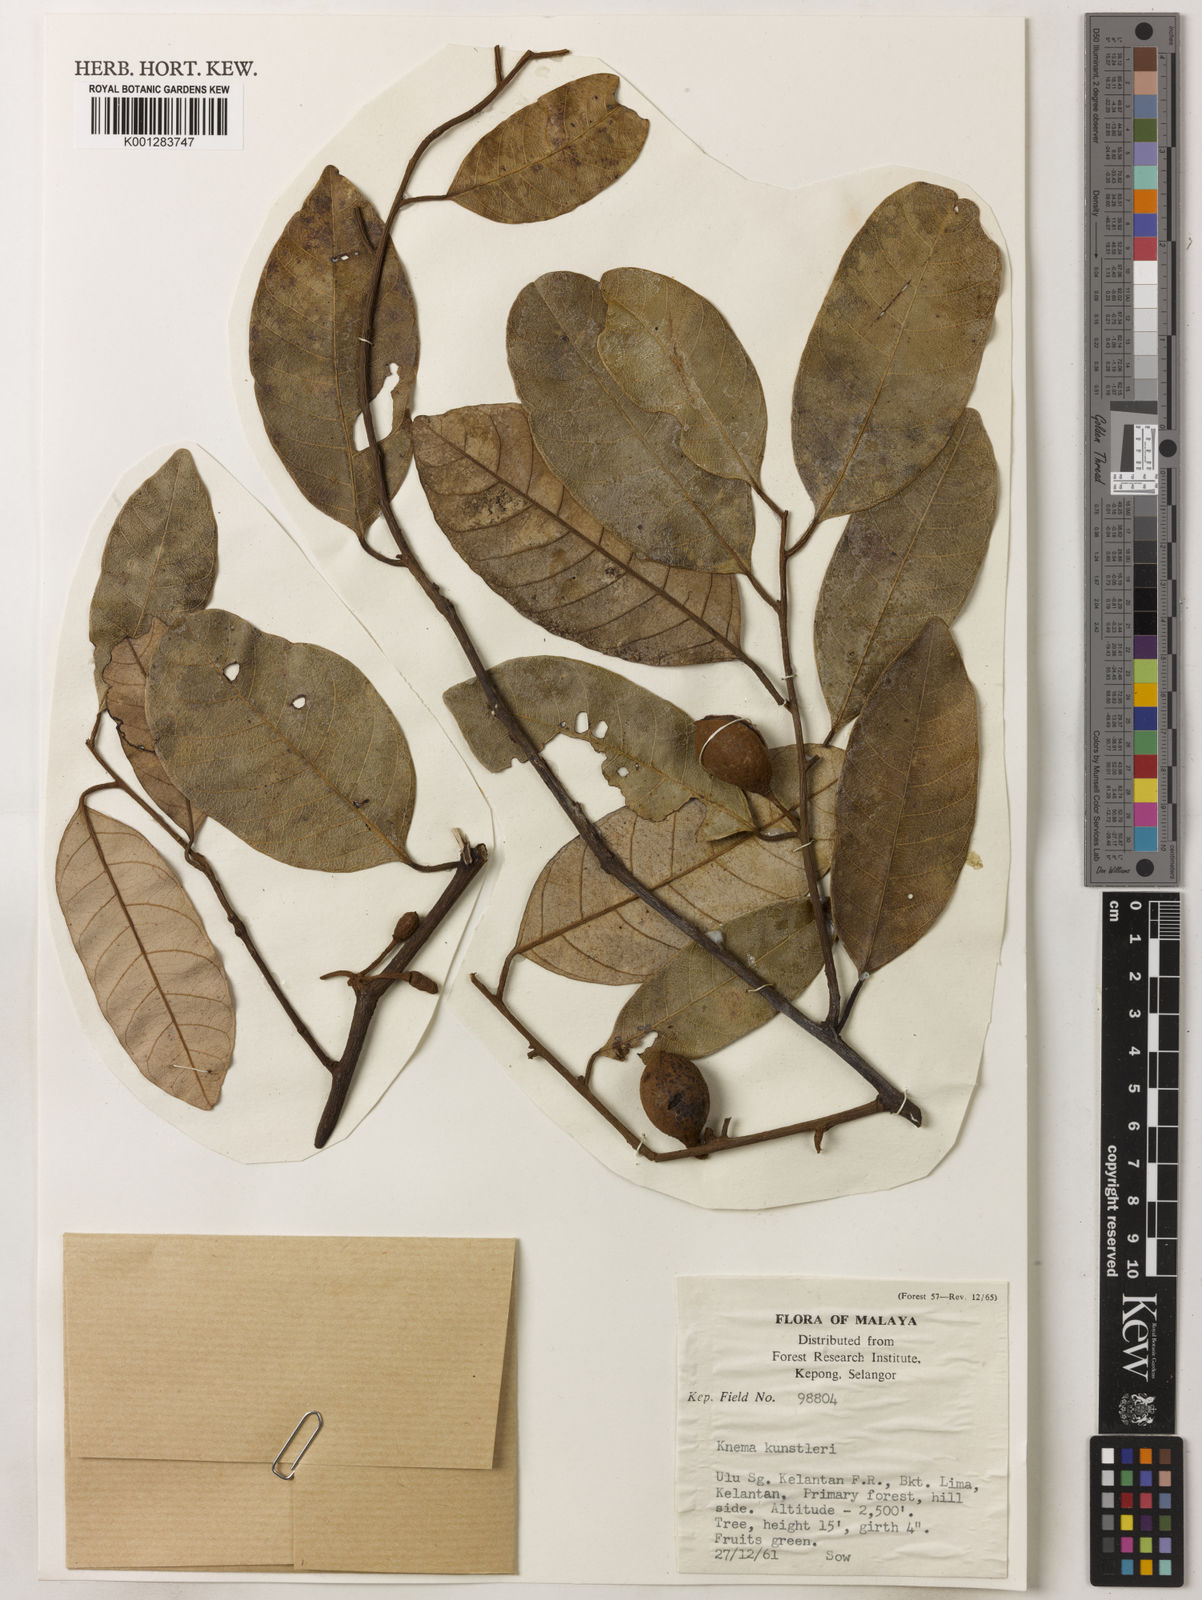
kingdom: Plantae
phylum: Tracheophyta
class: Magnoliopsida
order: Magnoliales
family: Myristicaceae
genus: Knema
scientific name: Knema kunstleri
